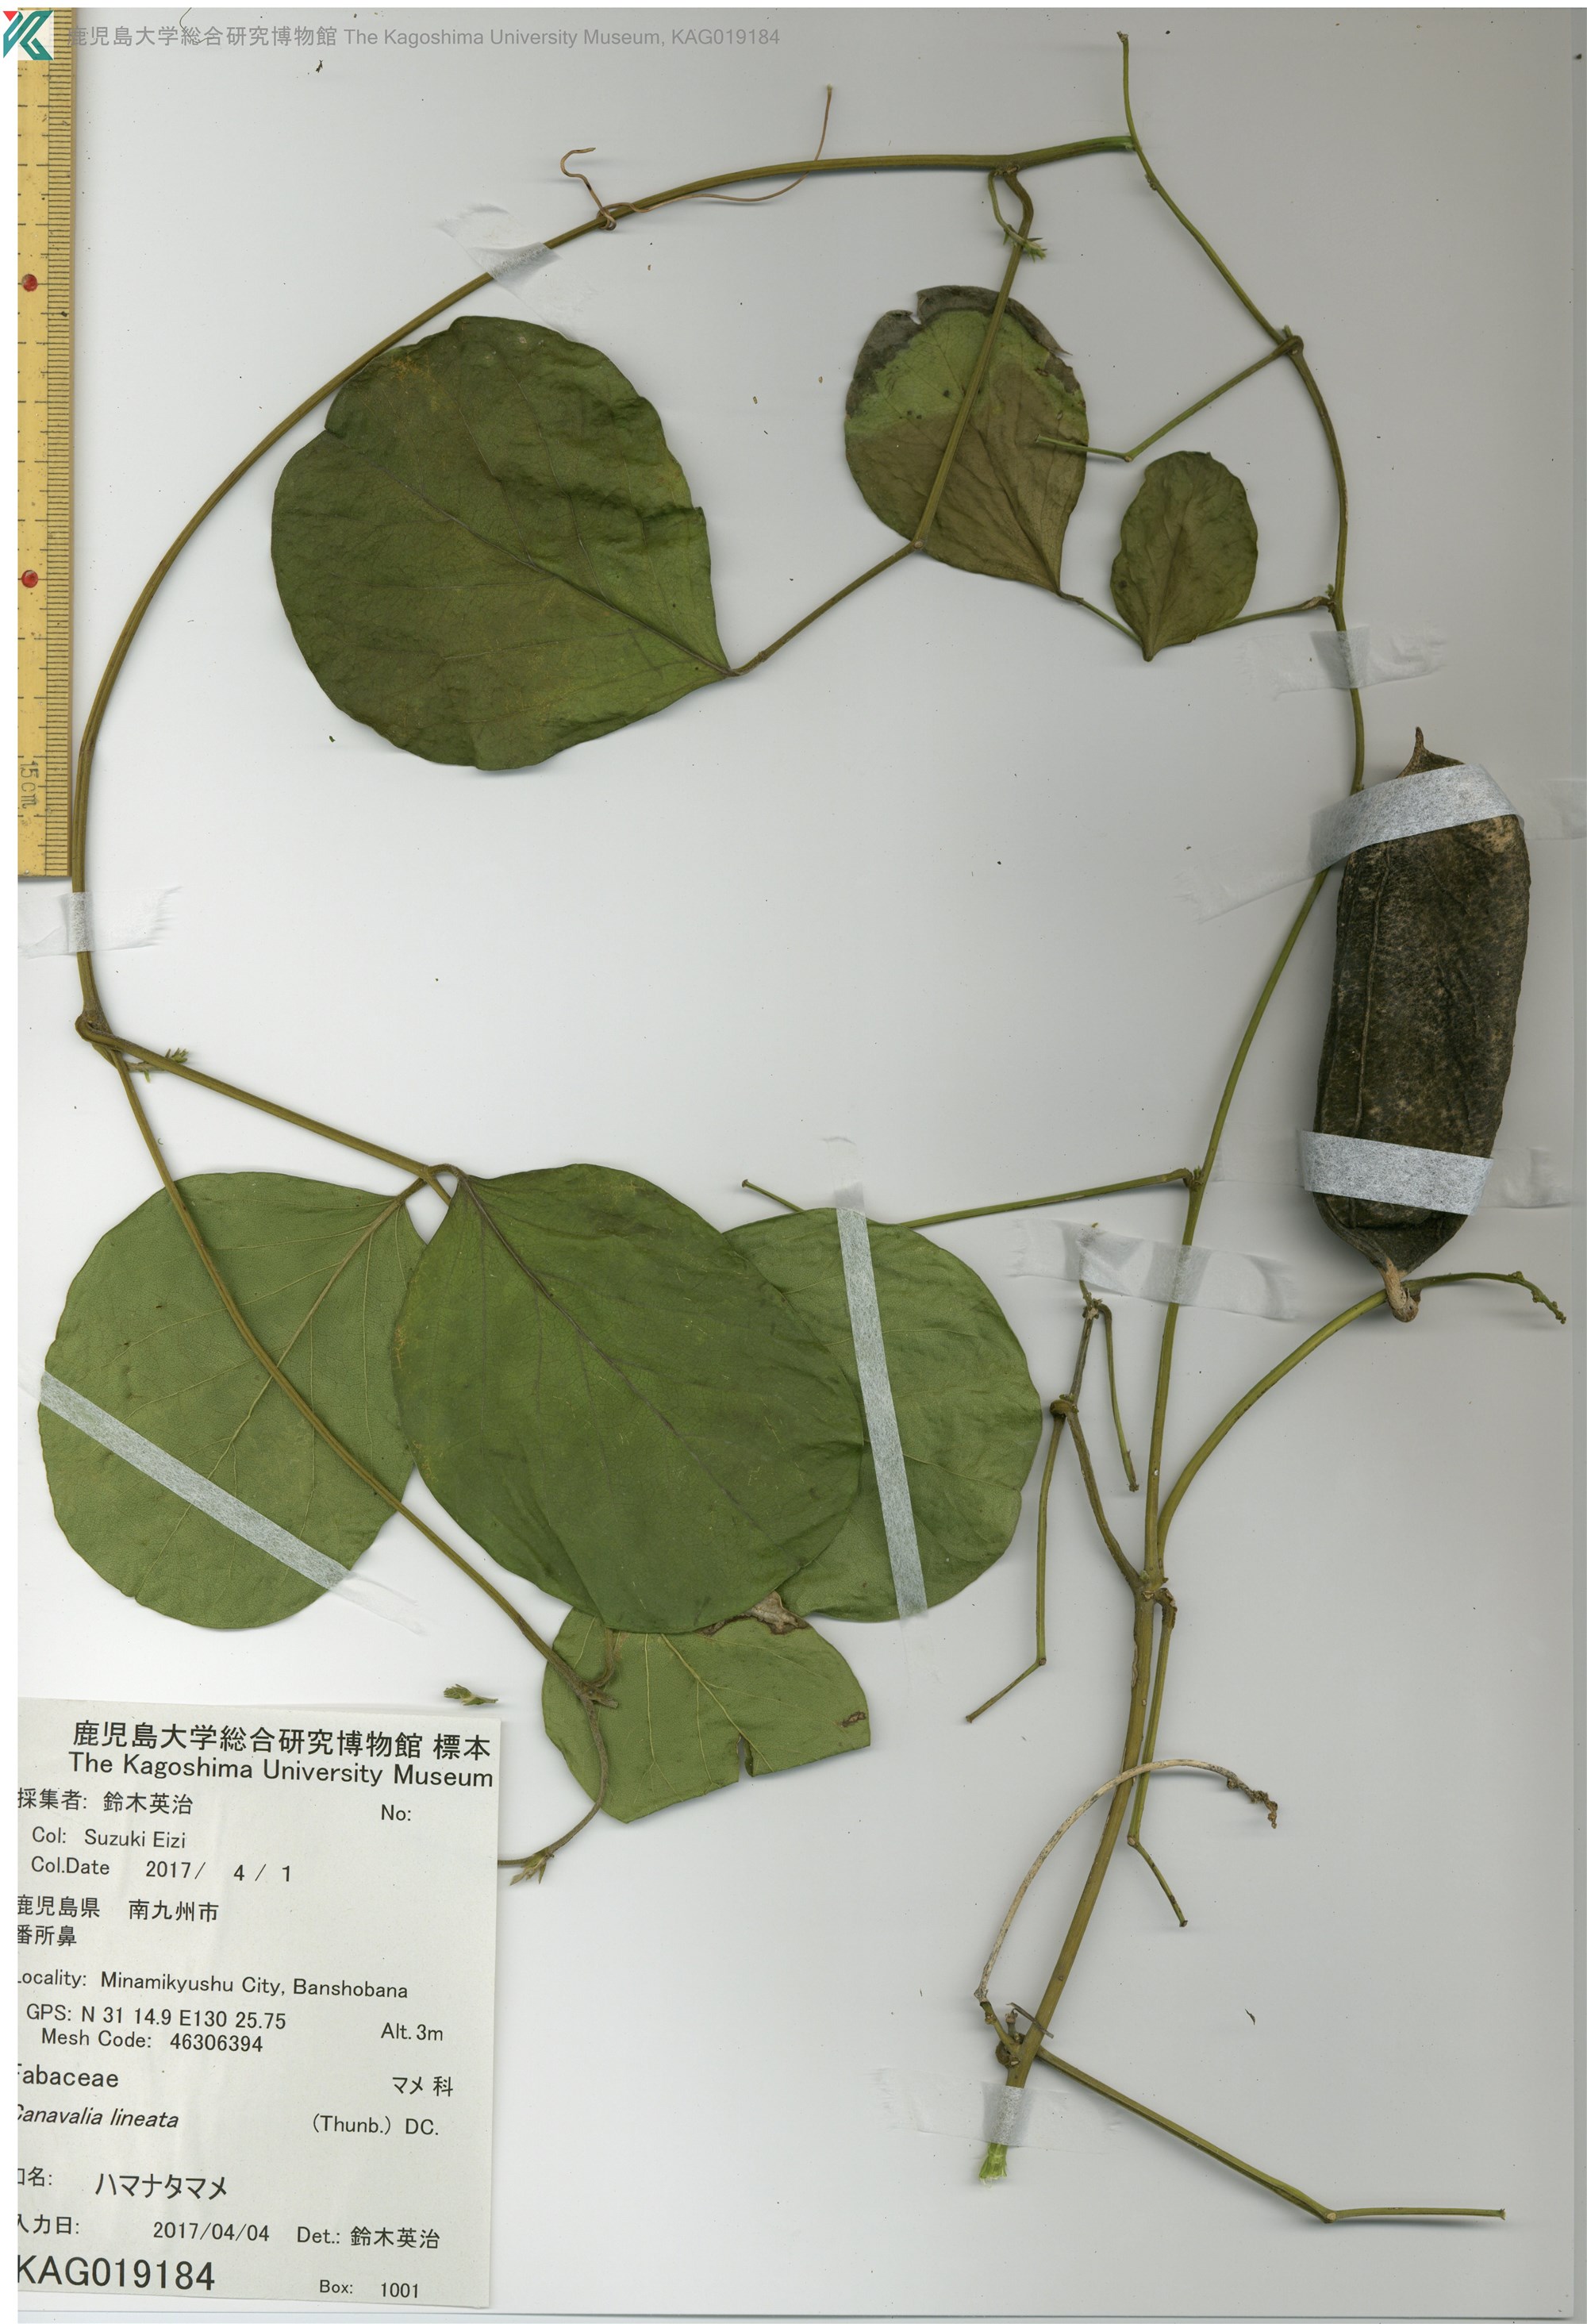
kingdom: Plantae
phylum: Tracheophyta
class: Magnoliopsida
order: Fabales
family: Fabaceae
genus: Canavalia
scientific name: Canavalia lineata
